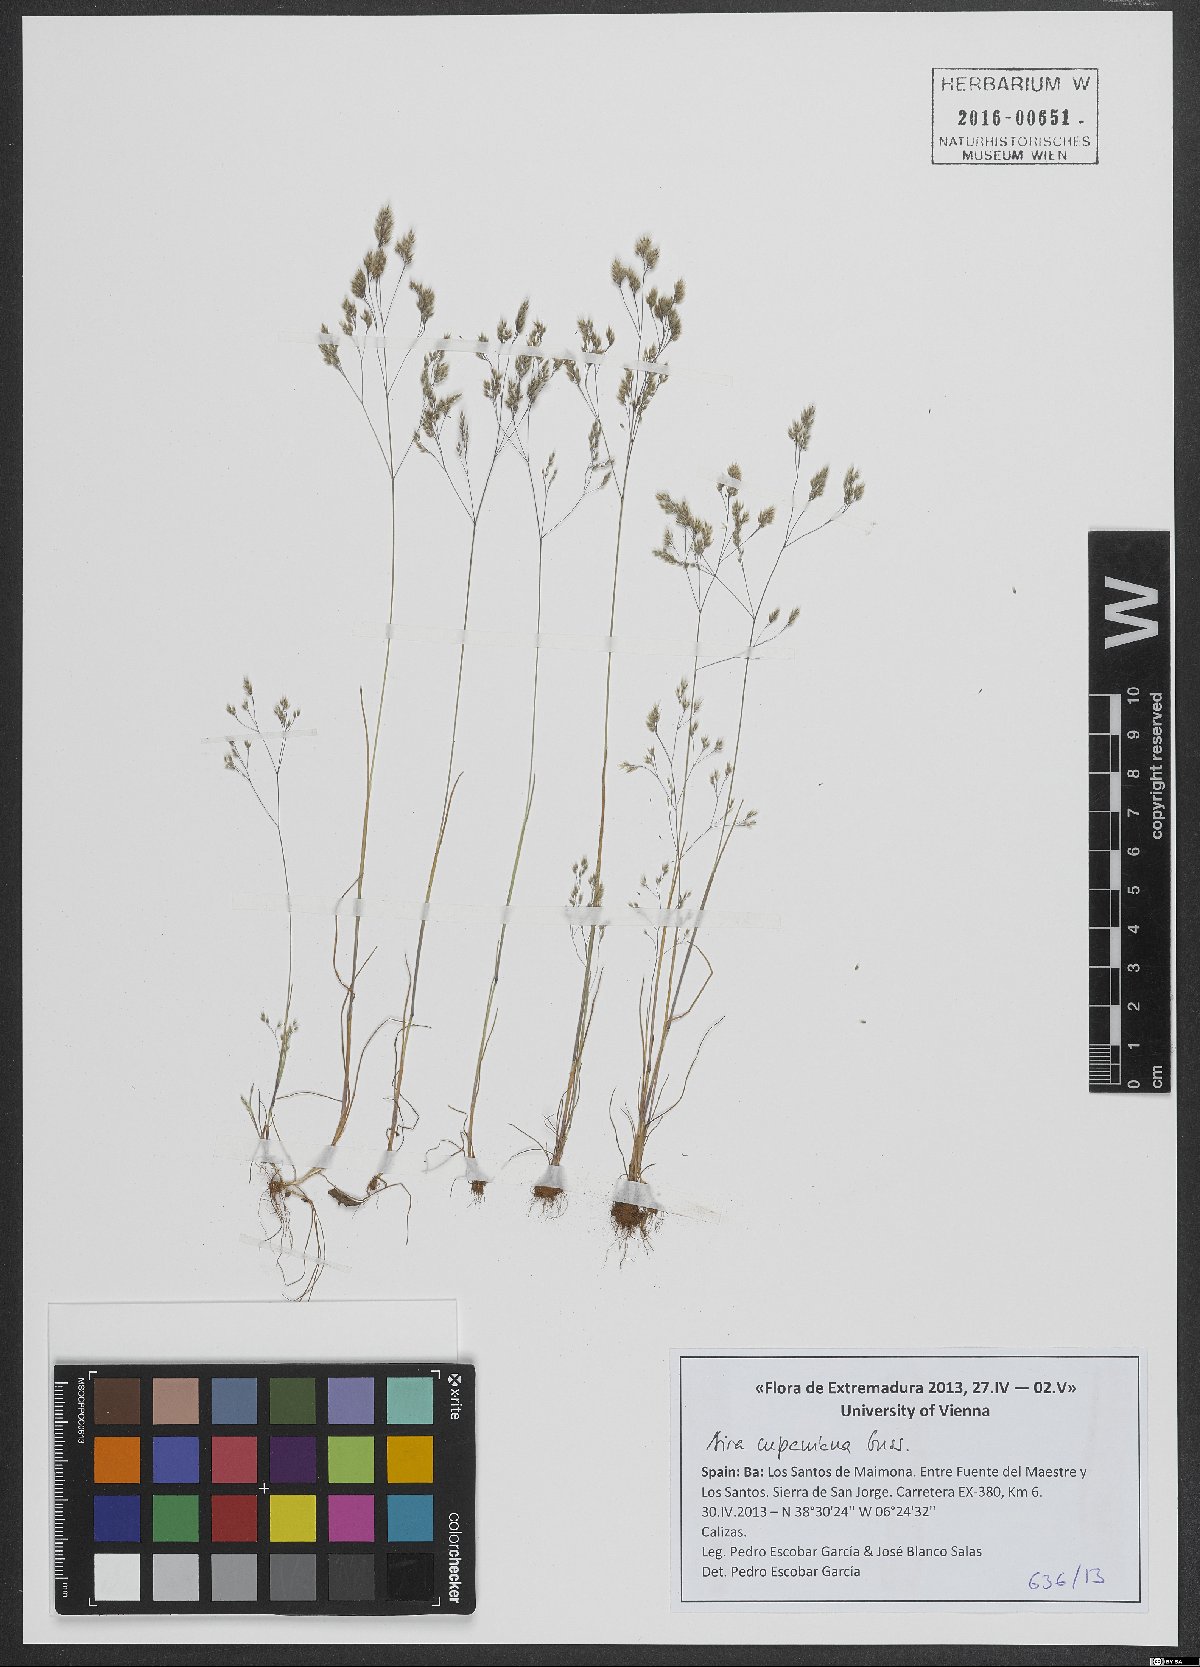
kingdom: Plantae
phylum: Tracheophyta
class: Liliopsida
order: Poales
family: Poaceae
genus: Aira
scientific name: Aira cupaniana
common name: Silver hairgrass
